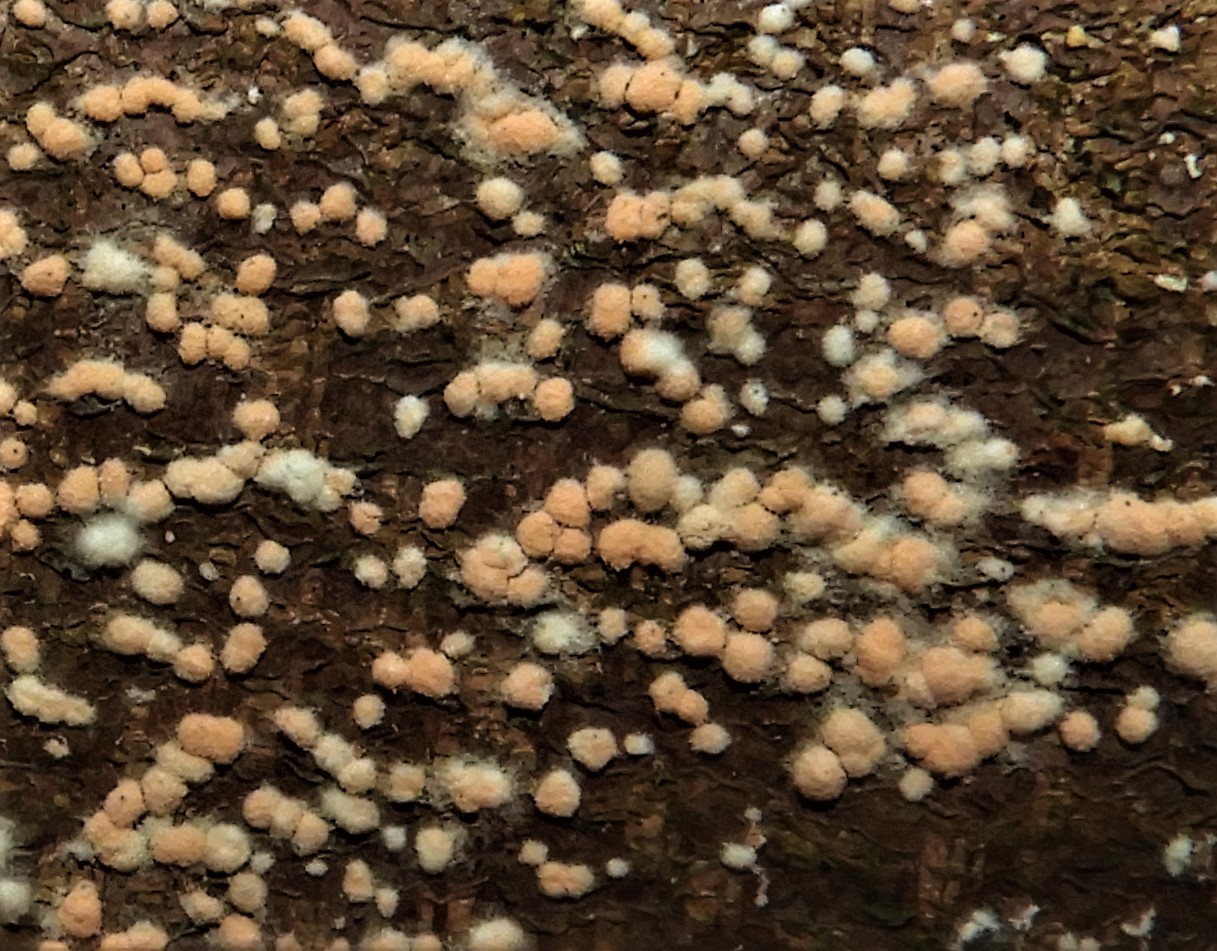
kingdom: Fungi
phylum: Ascomycota
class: Sordariomycetes
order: Hypocreales
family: Nectriaceae
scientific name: Nectriaceae
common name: cinnobersvampfamilien
